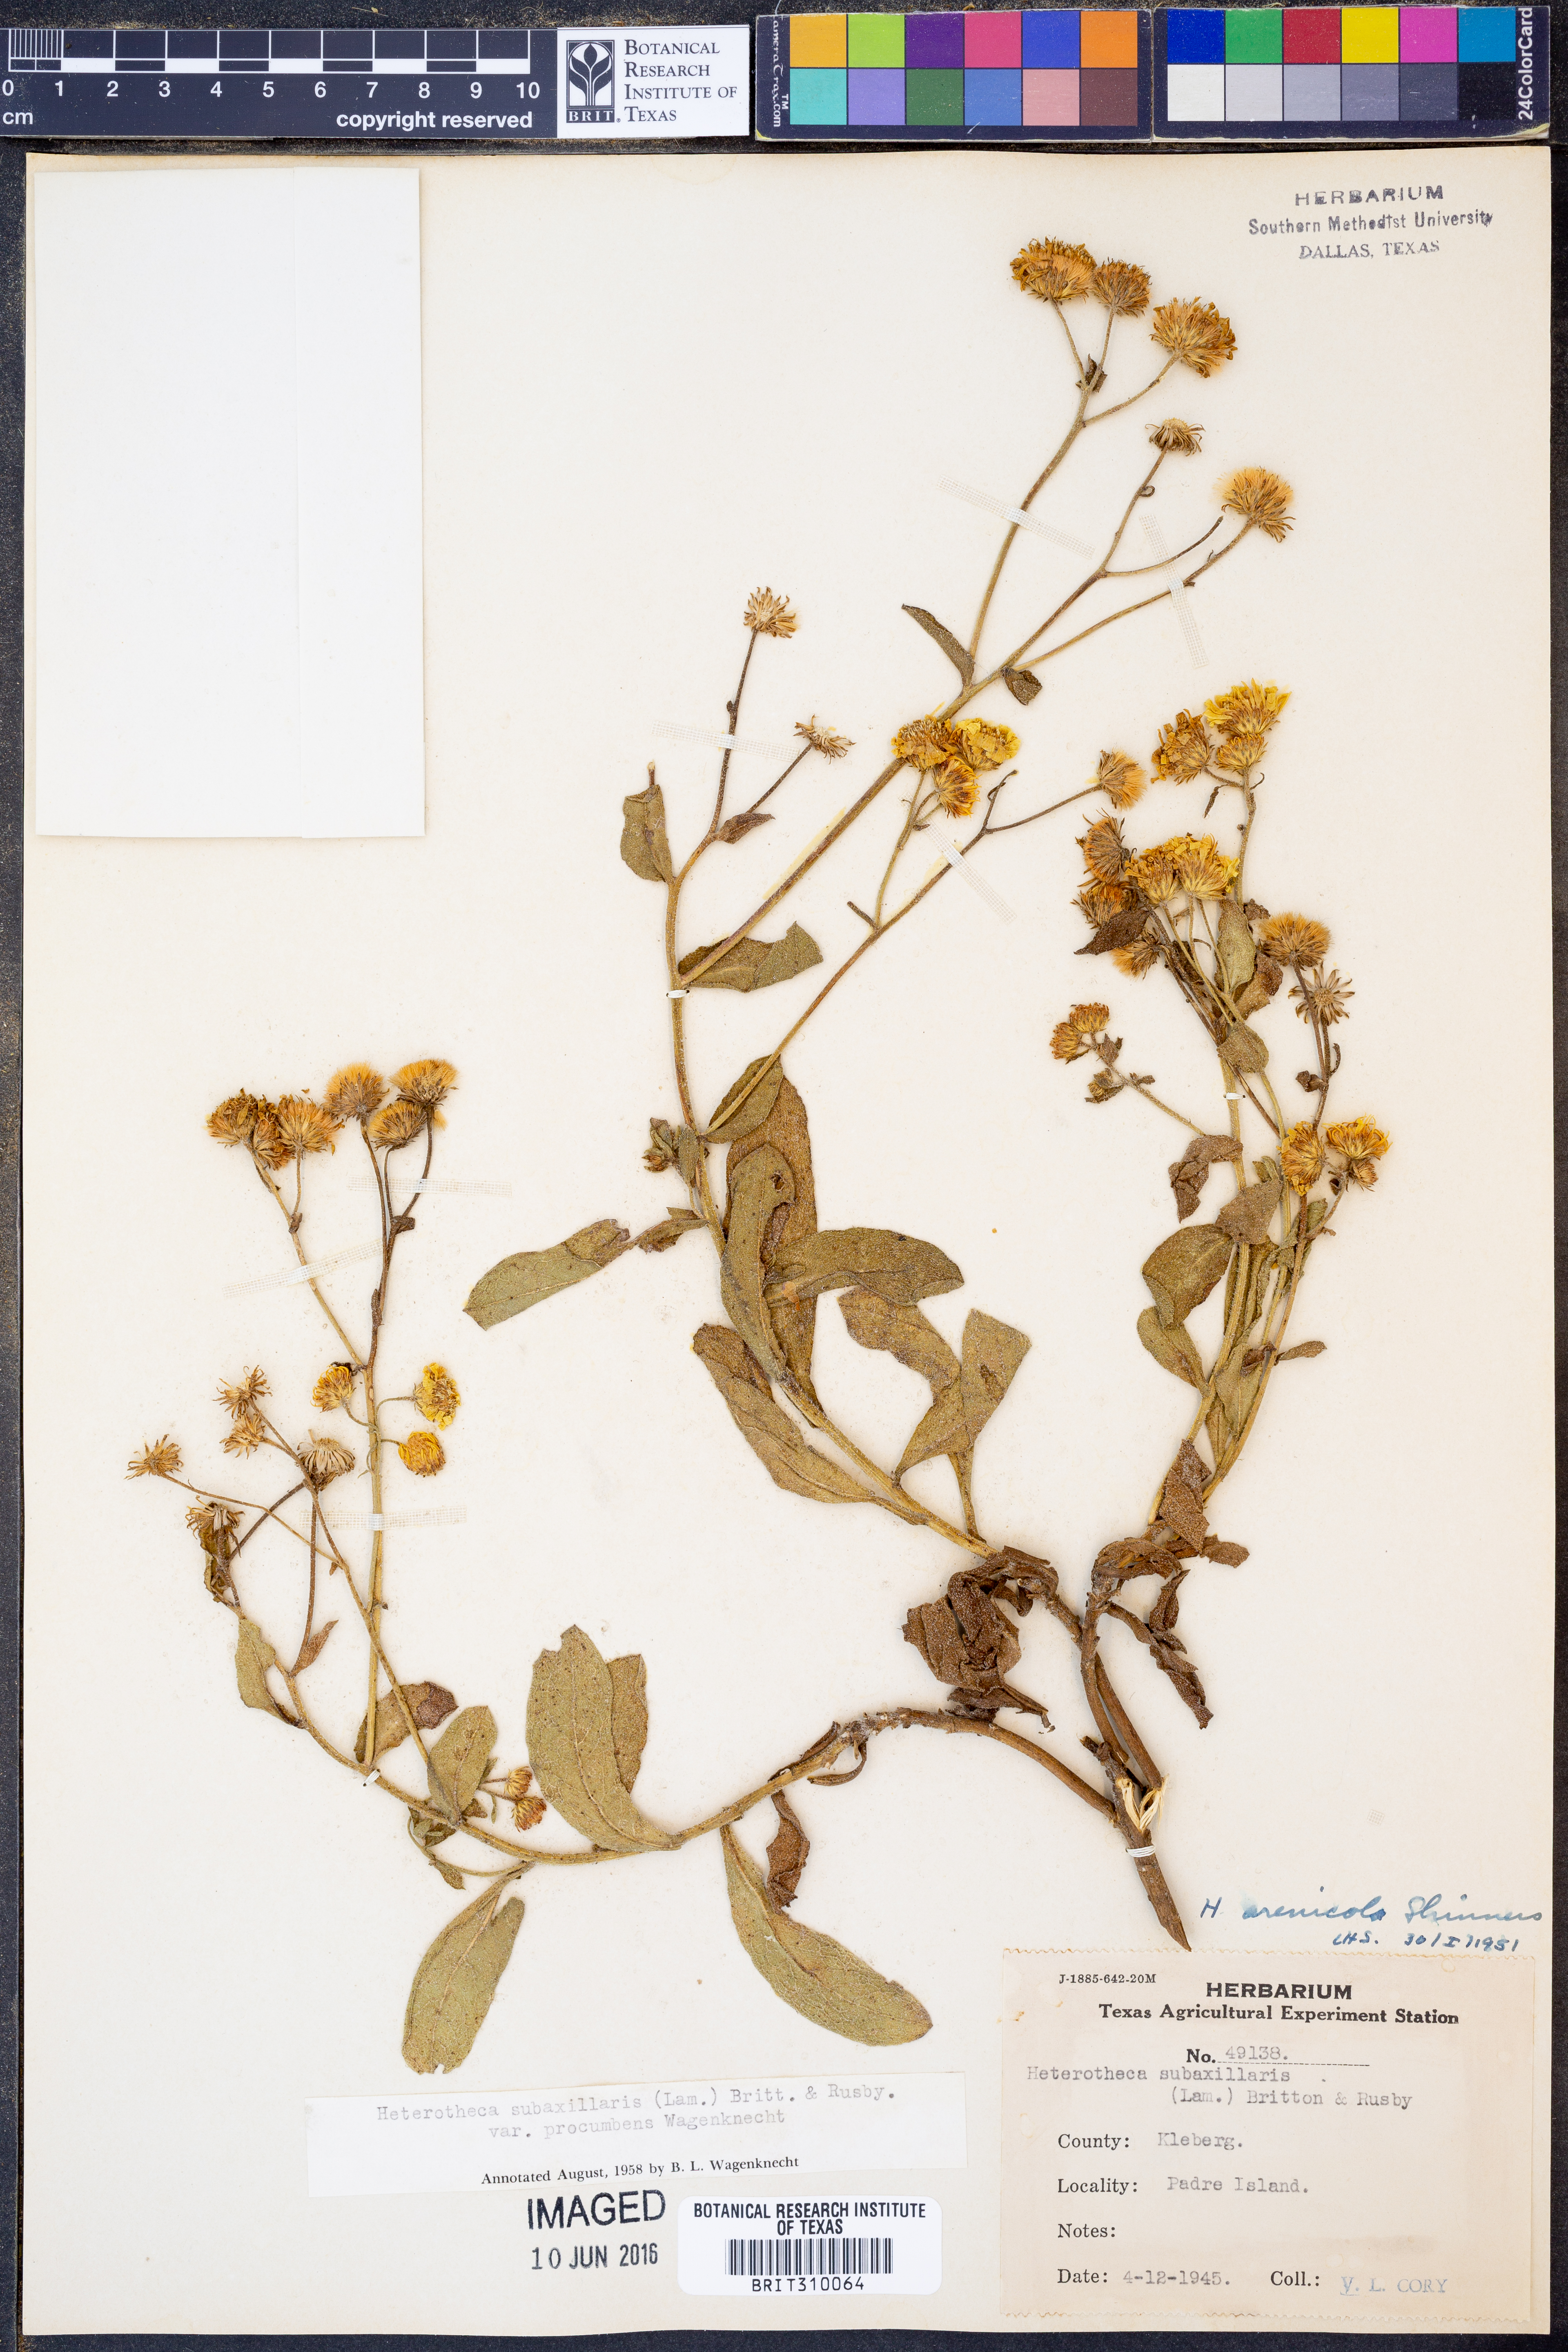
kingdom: Plantae
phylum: Tracheophyta
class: Magnoliopsida
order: Asterales
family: Asteraceae
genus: Heterotheca
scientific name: Heterotheca subaxillaris
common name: Camphorweed
